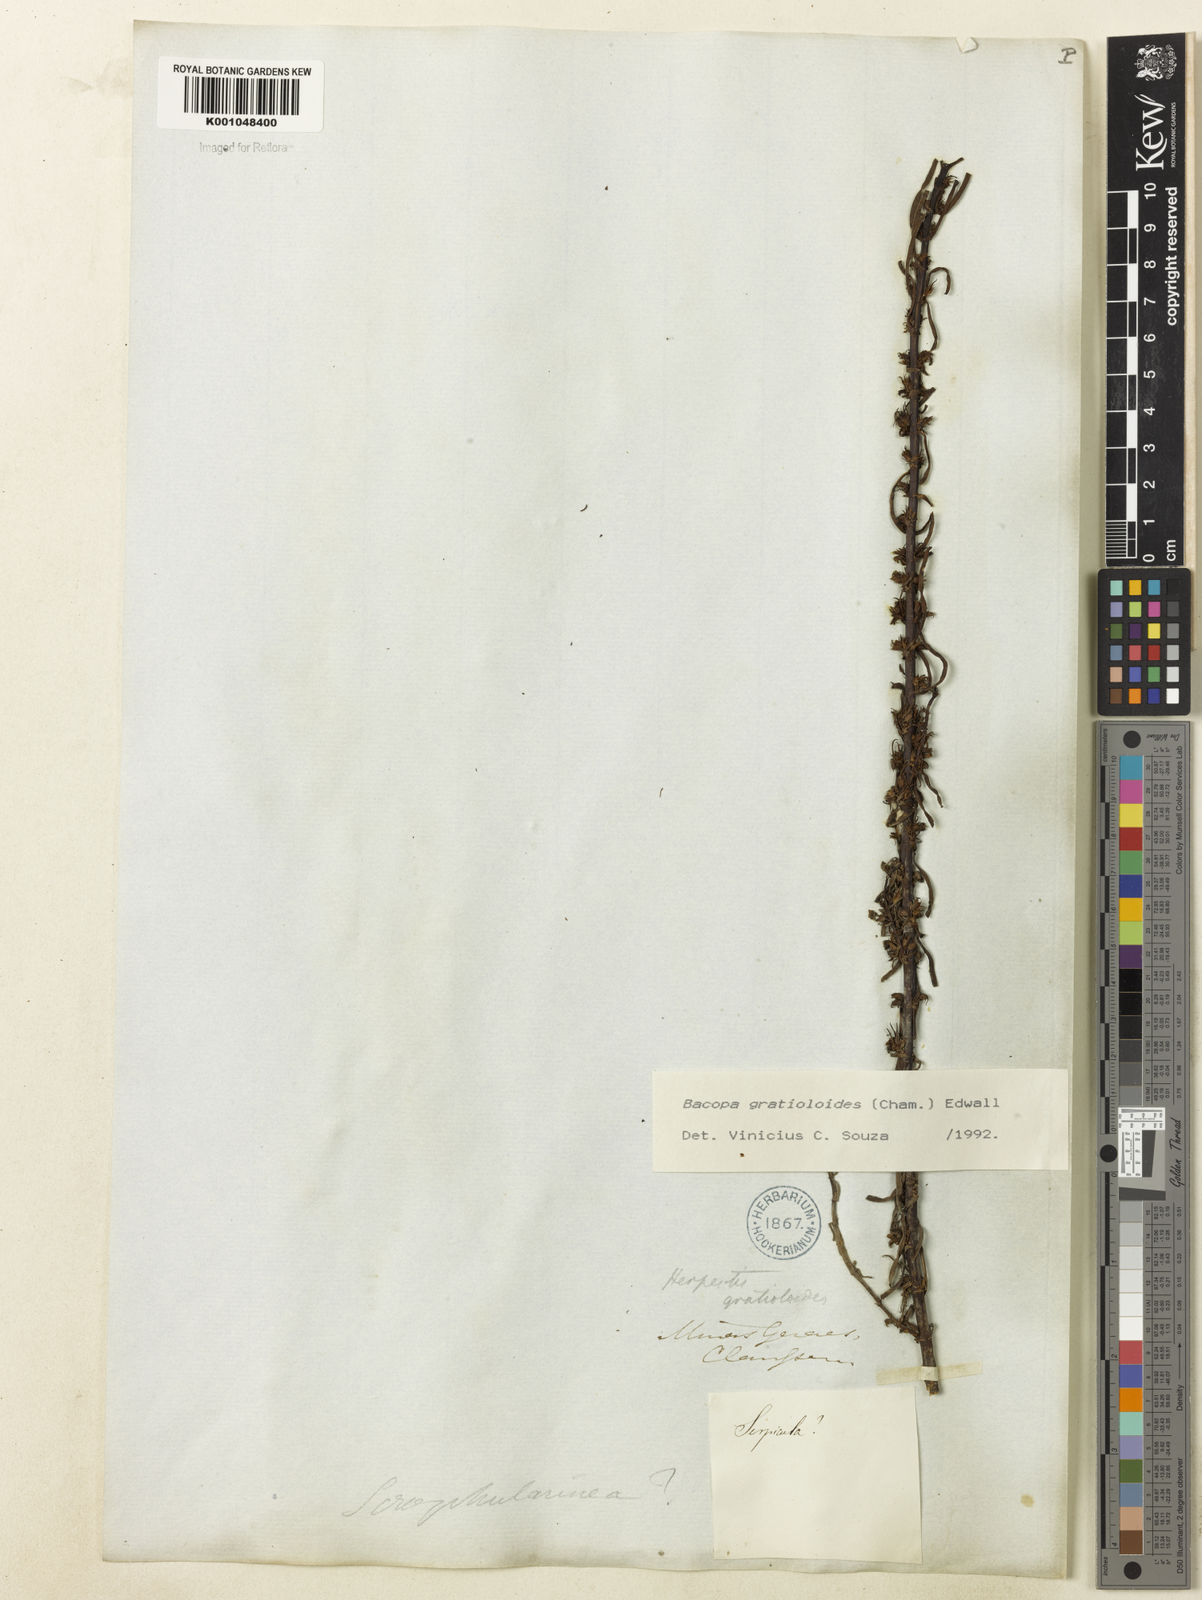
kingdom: Plantae
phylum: Tracheophyta
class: Magnoliopsida
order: Lamiales
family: Plantaginaceae
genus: Bacopa
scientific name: Bacopa
